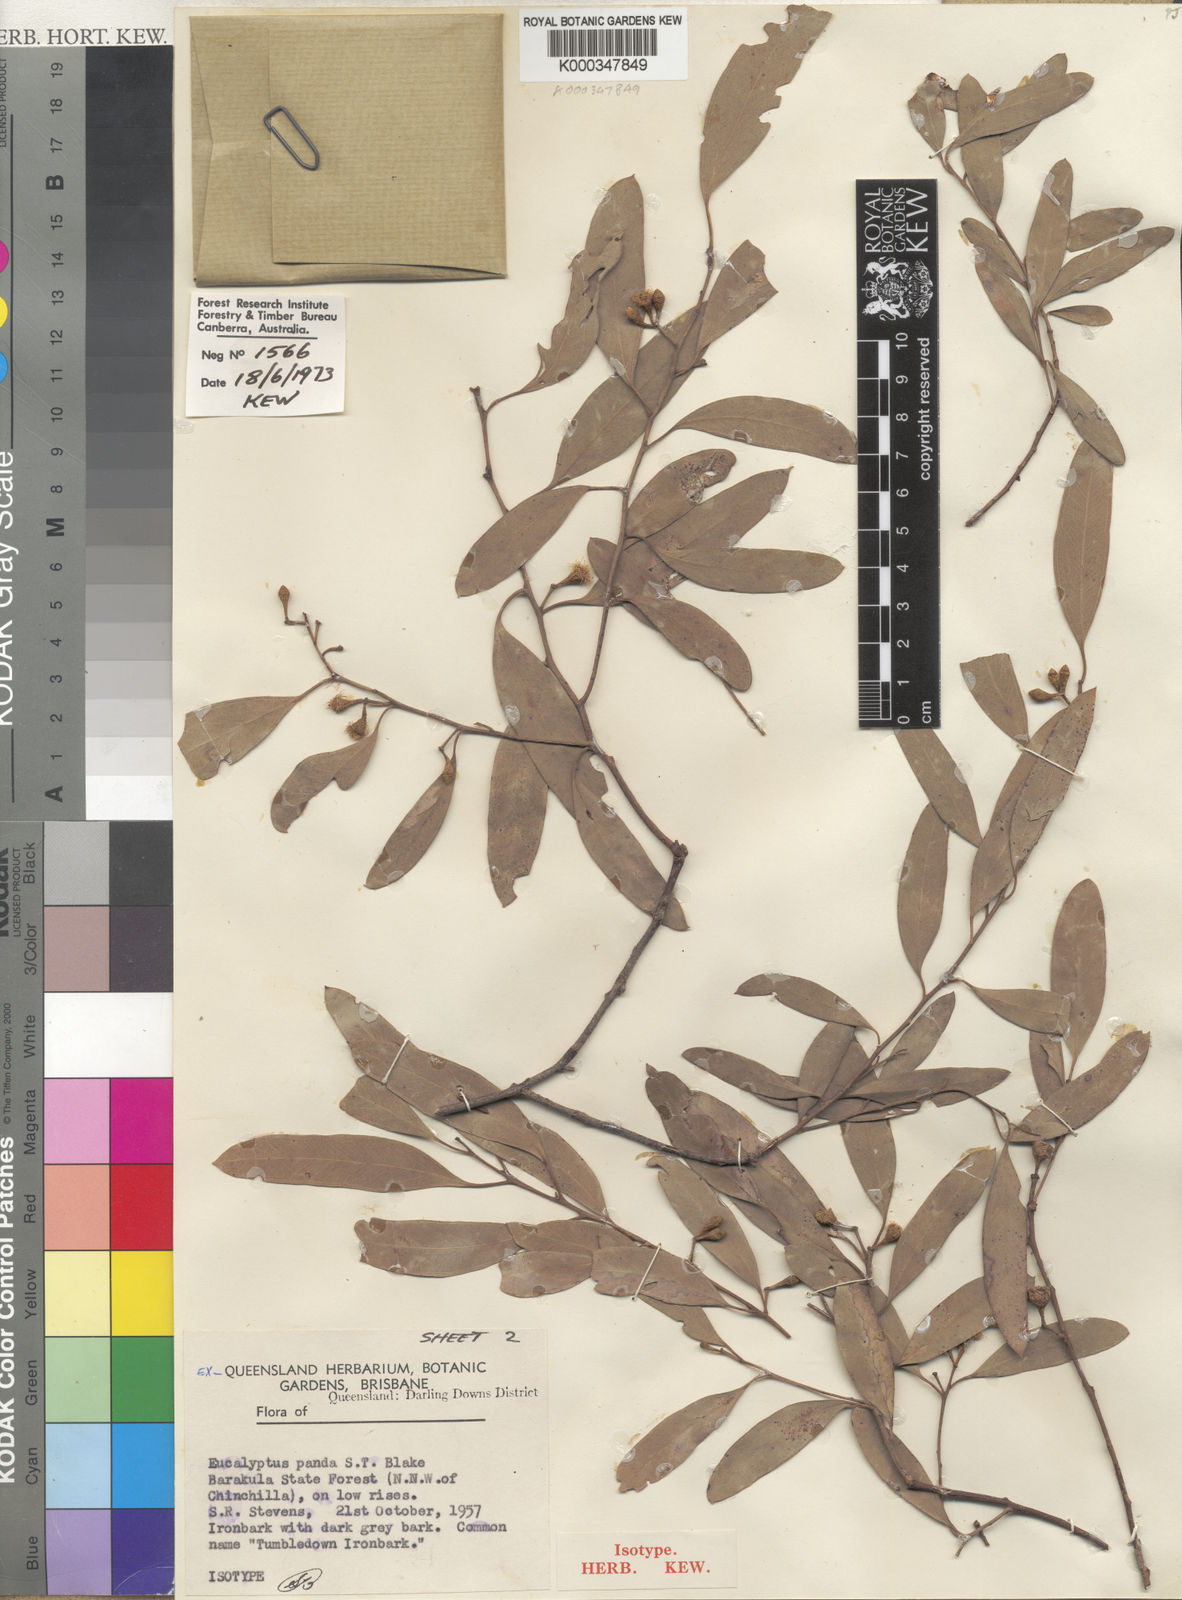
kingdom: Plantae
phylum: Tracheophyta
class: Magnoliopsida
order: Myrtales
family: Myrtaceae
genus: Eucalyptus
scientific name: Eucalyptus panda
